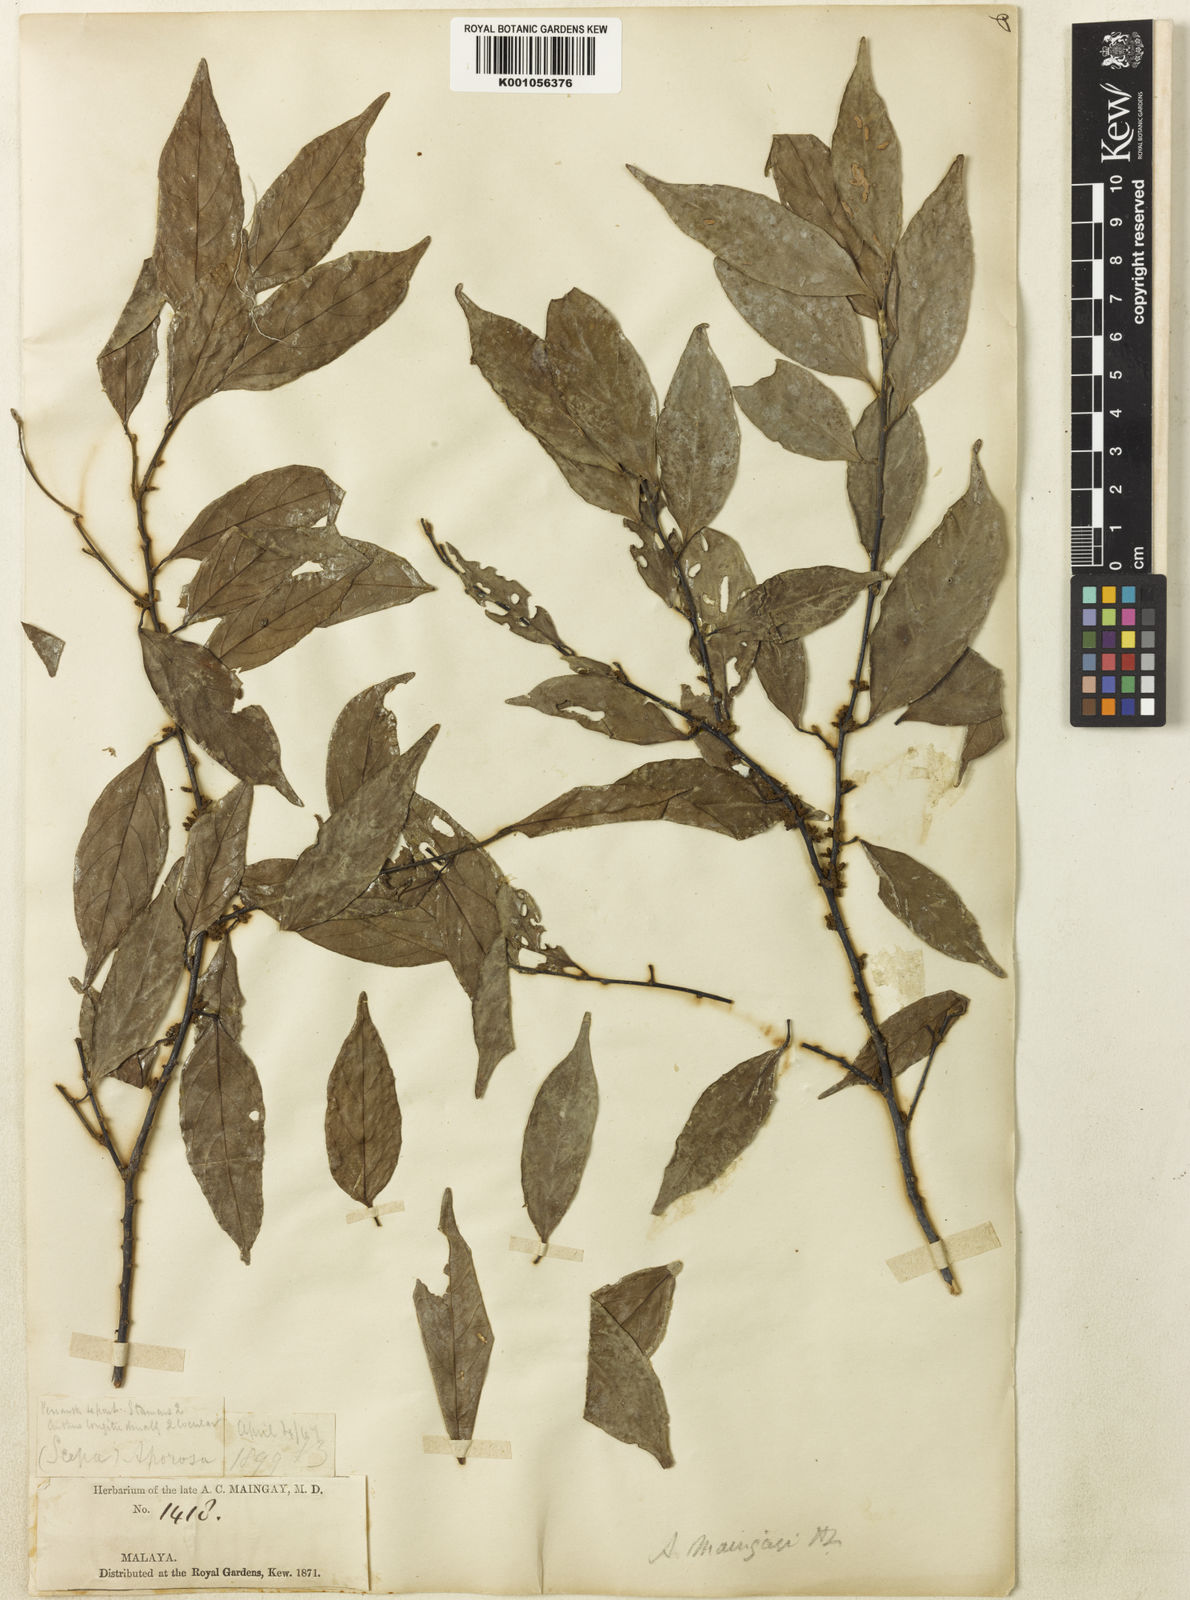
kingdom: Plantae
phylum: Tracheophyta
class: Magnoliopsida
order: Malpighiales
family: Phyllanthaceae
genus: Aporosa
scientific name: Aporosa maingayi
